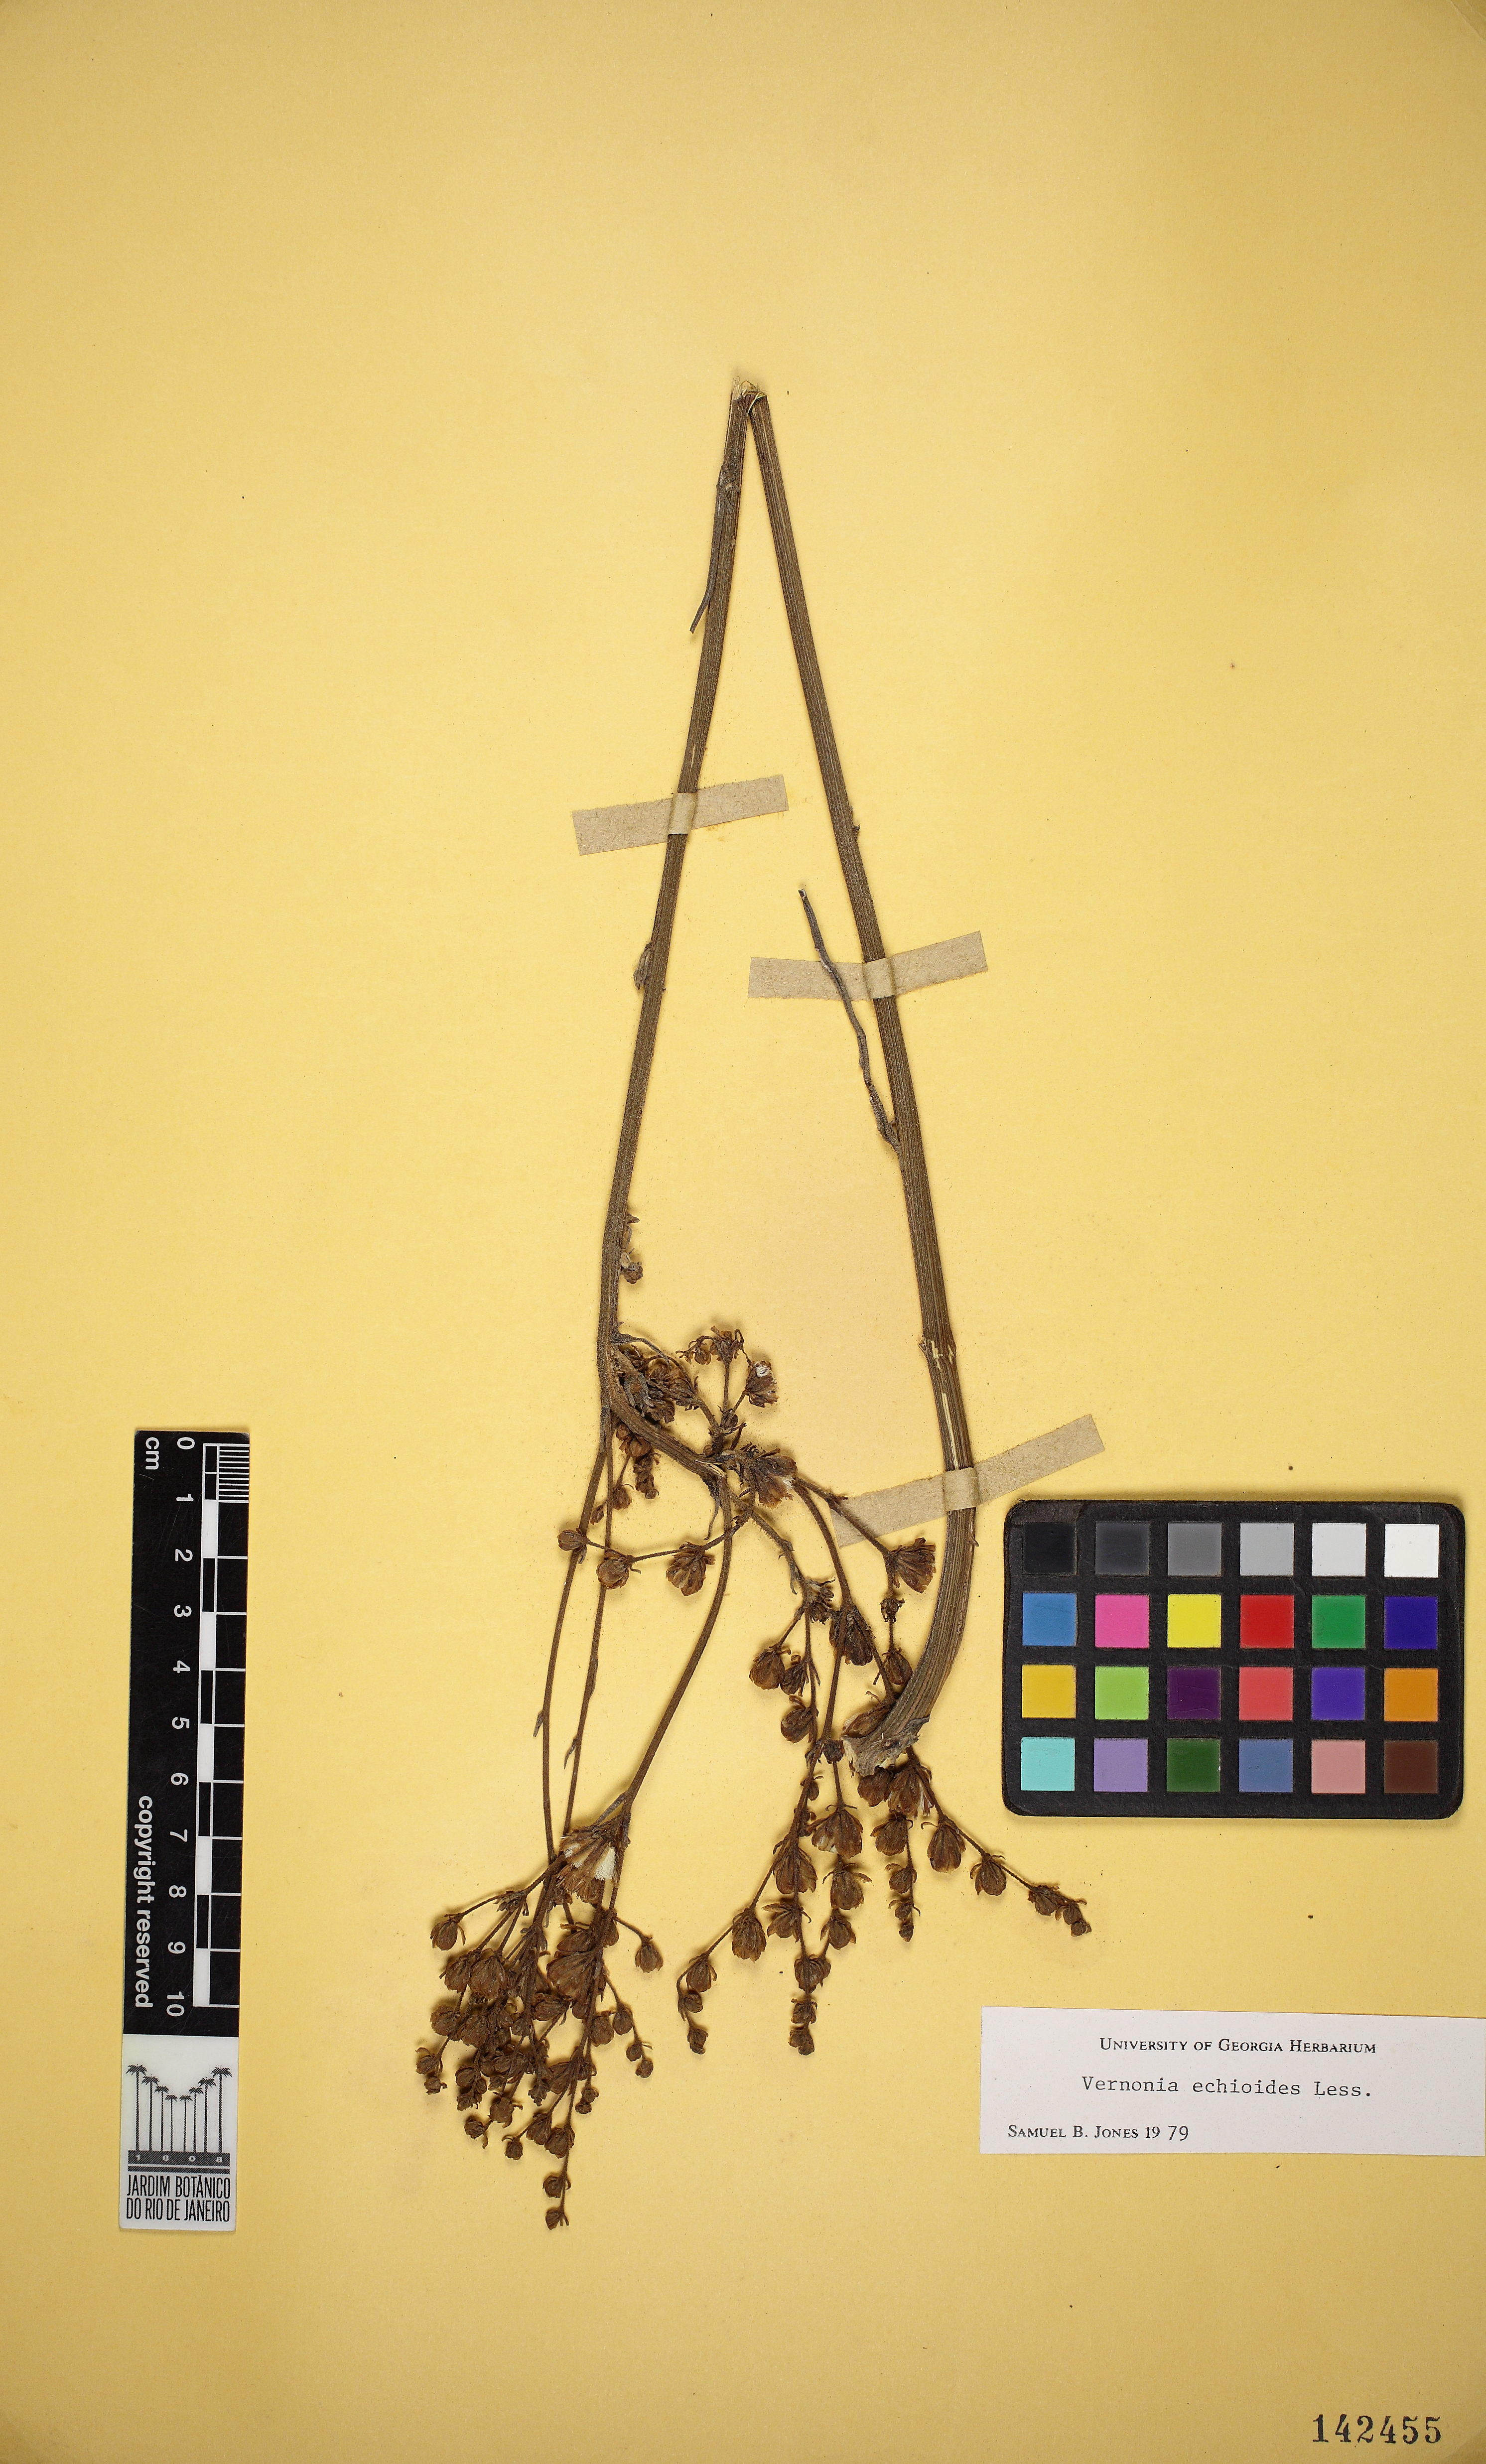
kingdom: Plantae
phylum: Tracheophyta
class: Magnoliopsida
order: Asterales
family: Asteraceae
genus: Vernonia
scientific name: Vernonia echioides
